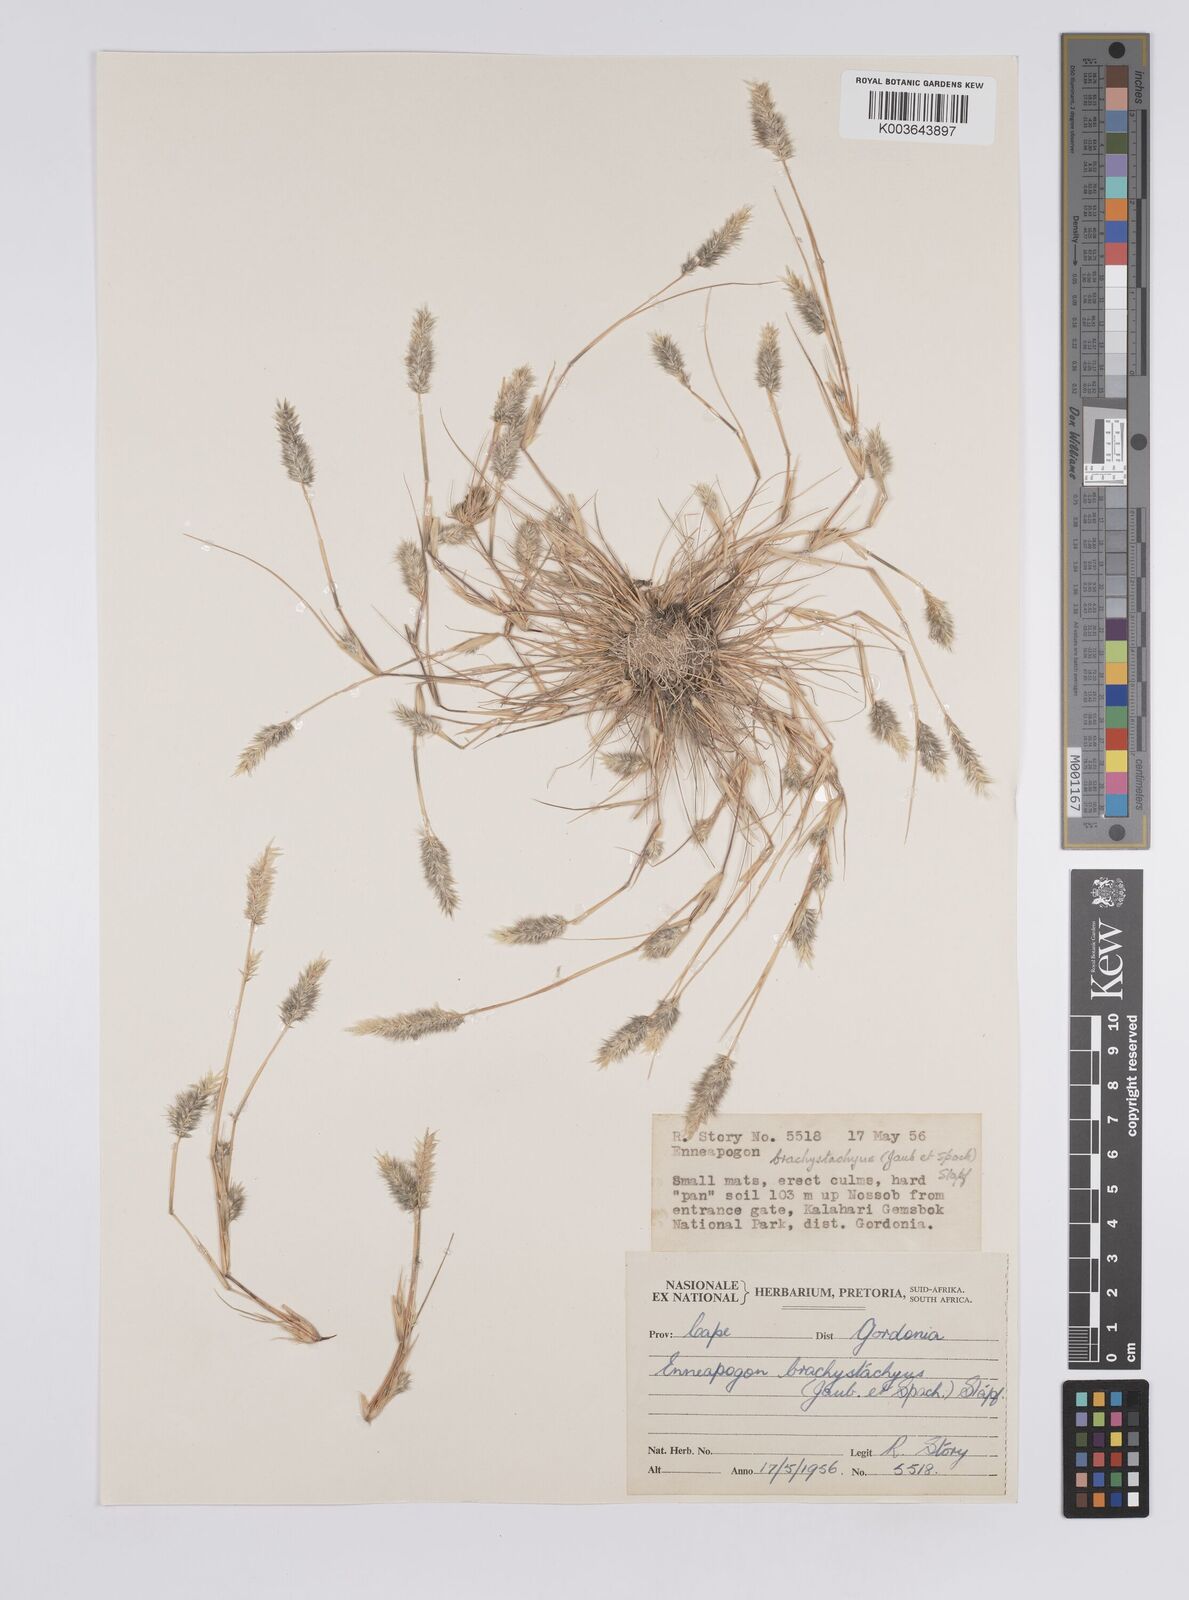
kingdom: Plantae
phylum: Tracheophyta
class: Liliopsida
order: Poales
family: Poaceae
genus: Enneapogon
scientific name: Enneapogon desvauxii
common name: Feather pappus grass
